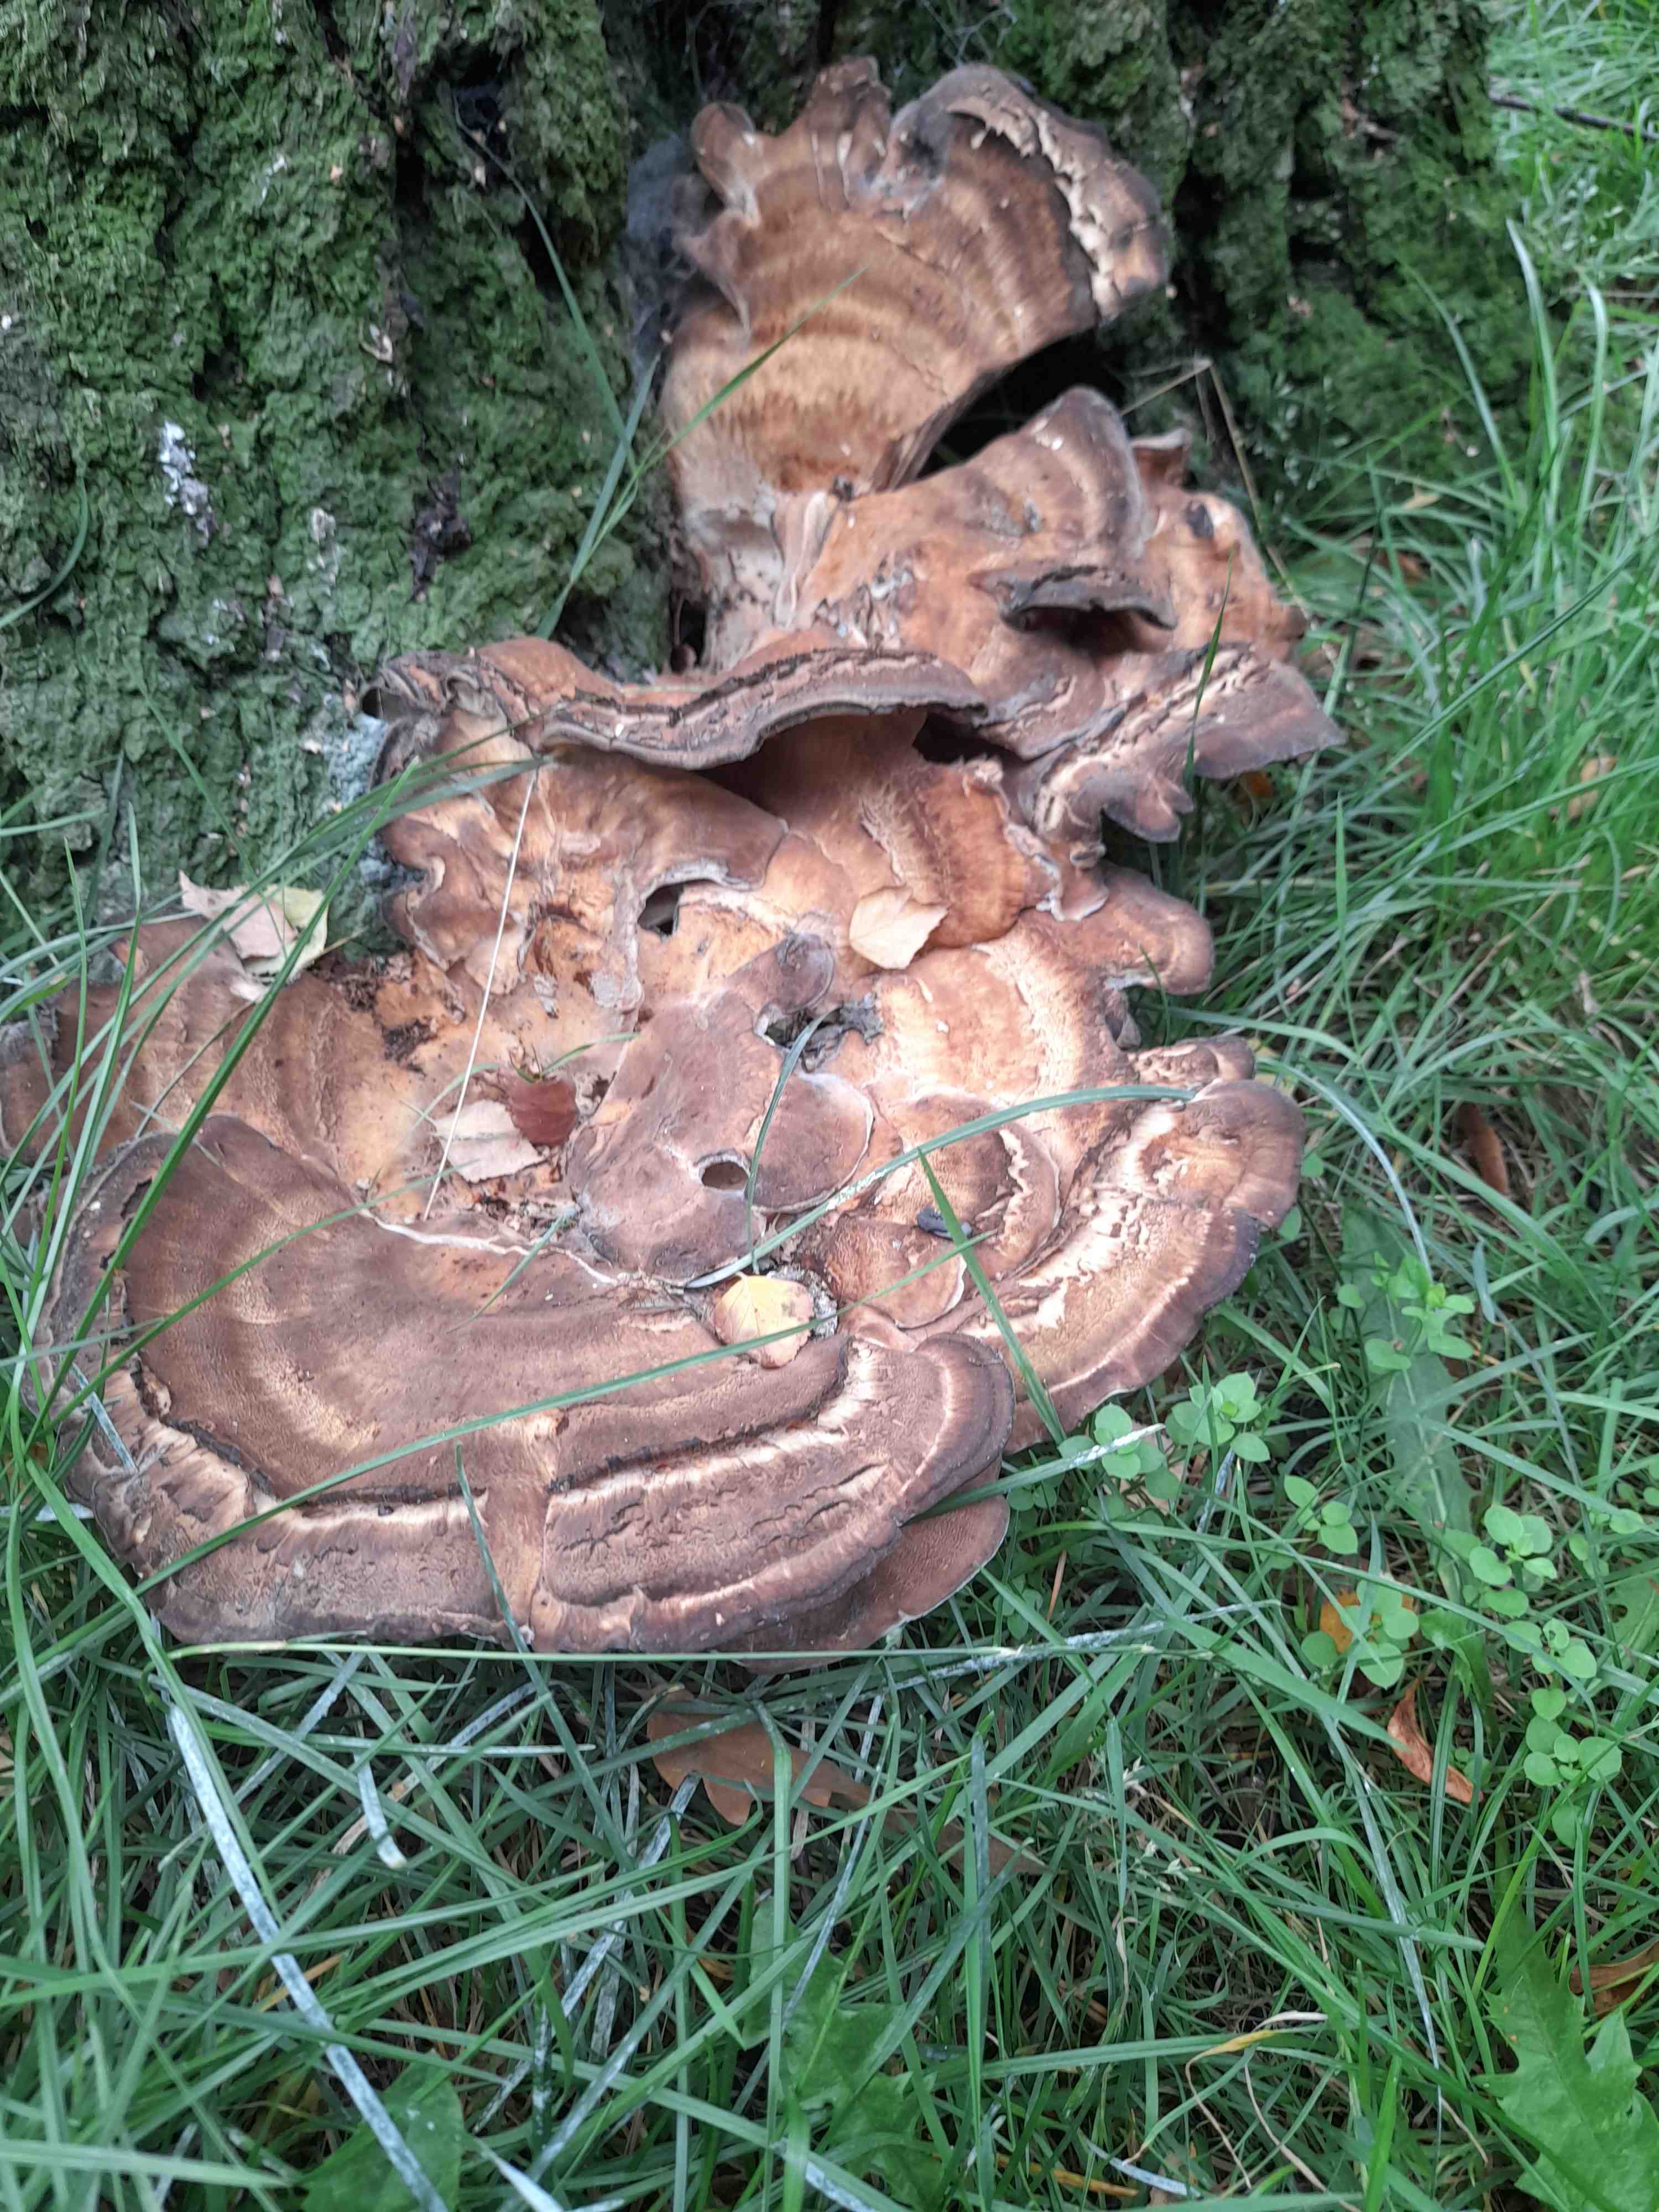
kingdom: Fungi
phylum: Basidiomycota
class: Agaricomycetes
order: Polyporales
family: Meripilaceae
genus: Meripilus
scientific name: Meripilus giganteus
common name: kæmpeporesvamp
